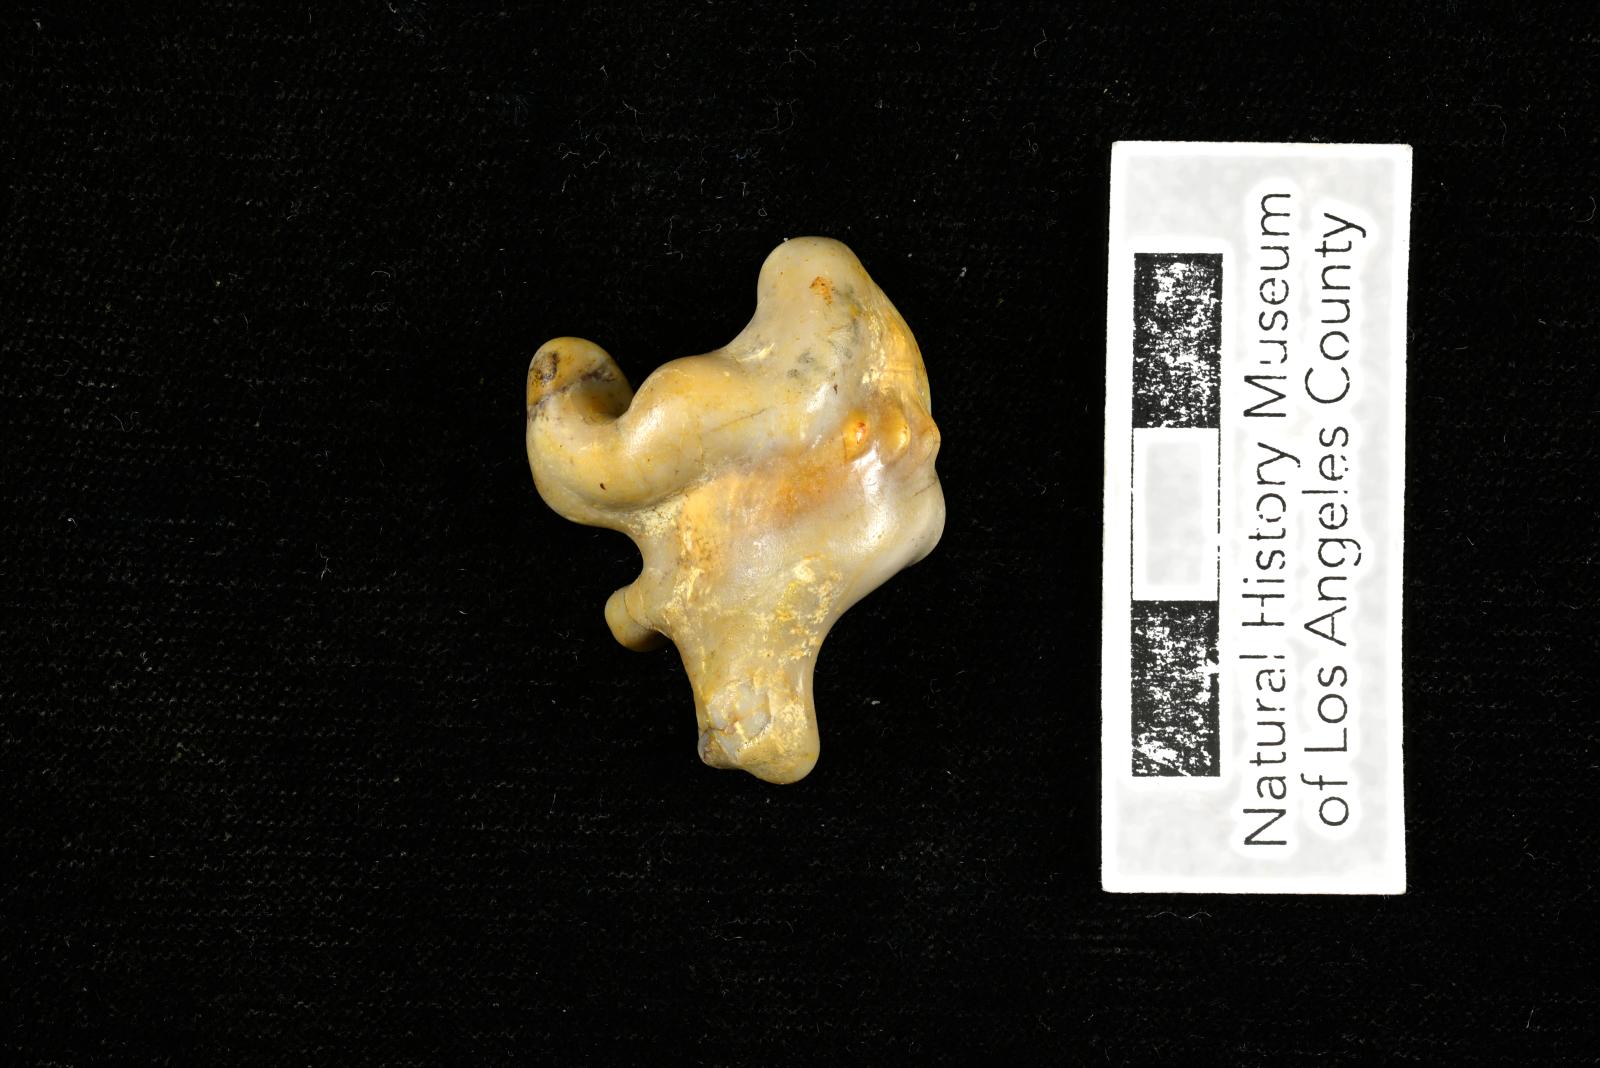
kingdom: Animalia
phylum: Mollusca
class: Gastropoda
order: Littorinimorpha
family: Aporrhaidae
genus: Pyktes
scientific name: Pyktes aspris
